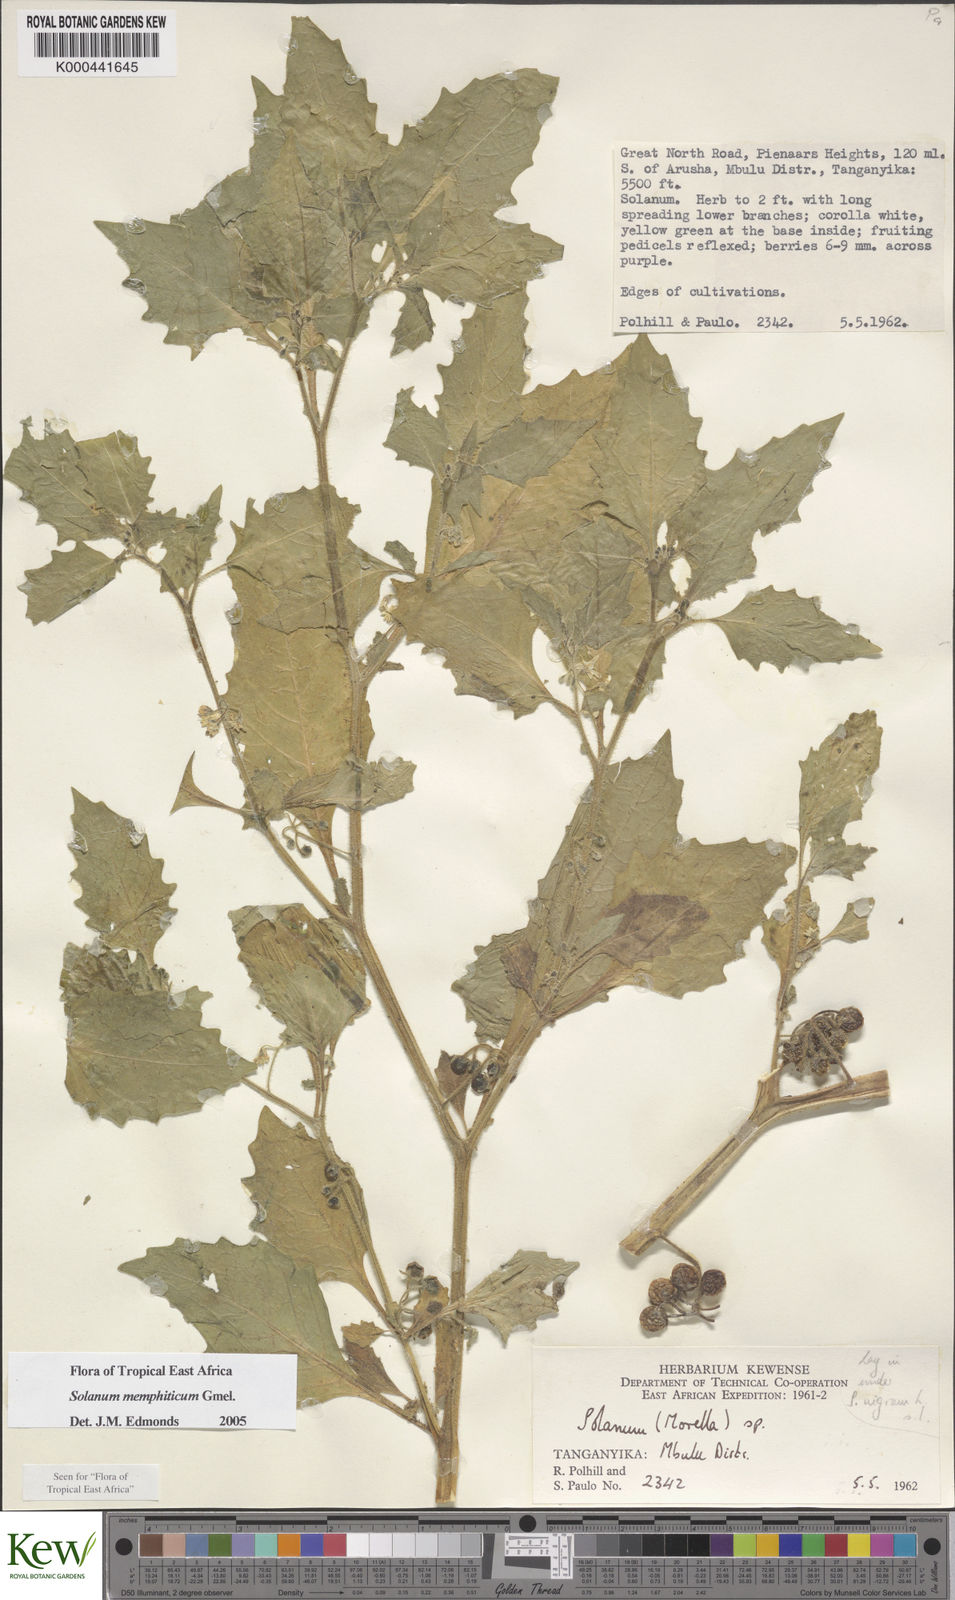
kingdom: Plantae
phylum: Tracheophyta
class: Magnoliopsida
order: Solanales
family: Solanaceae
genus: Solanum
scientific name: Solanum memphiticum
